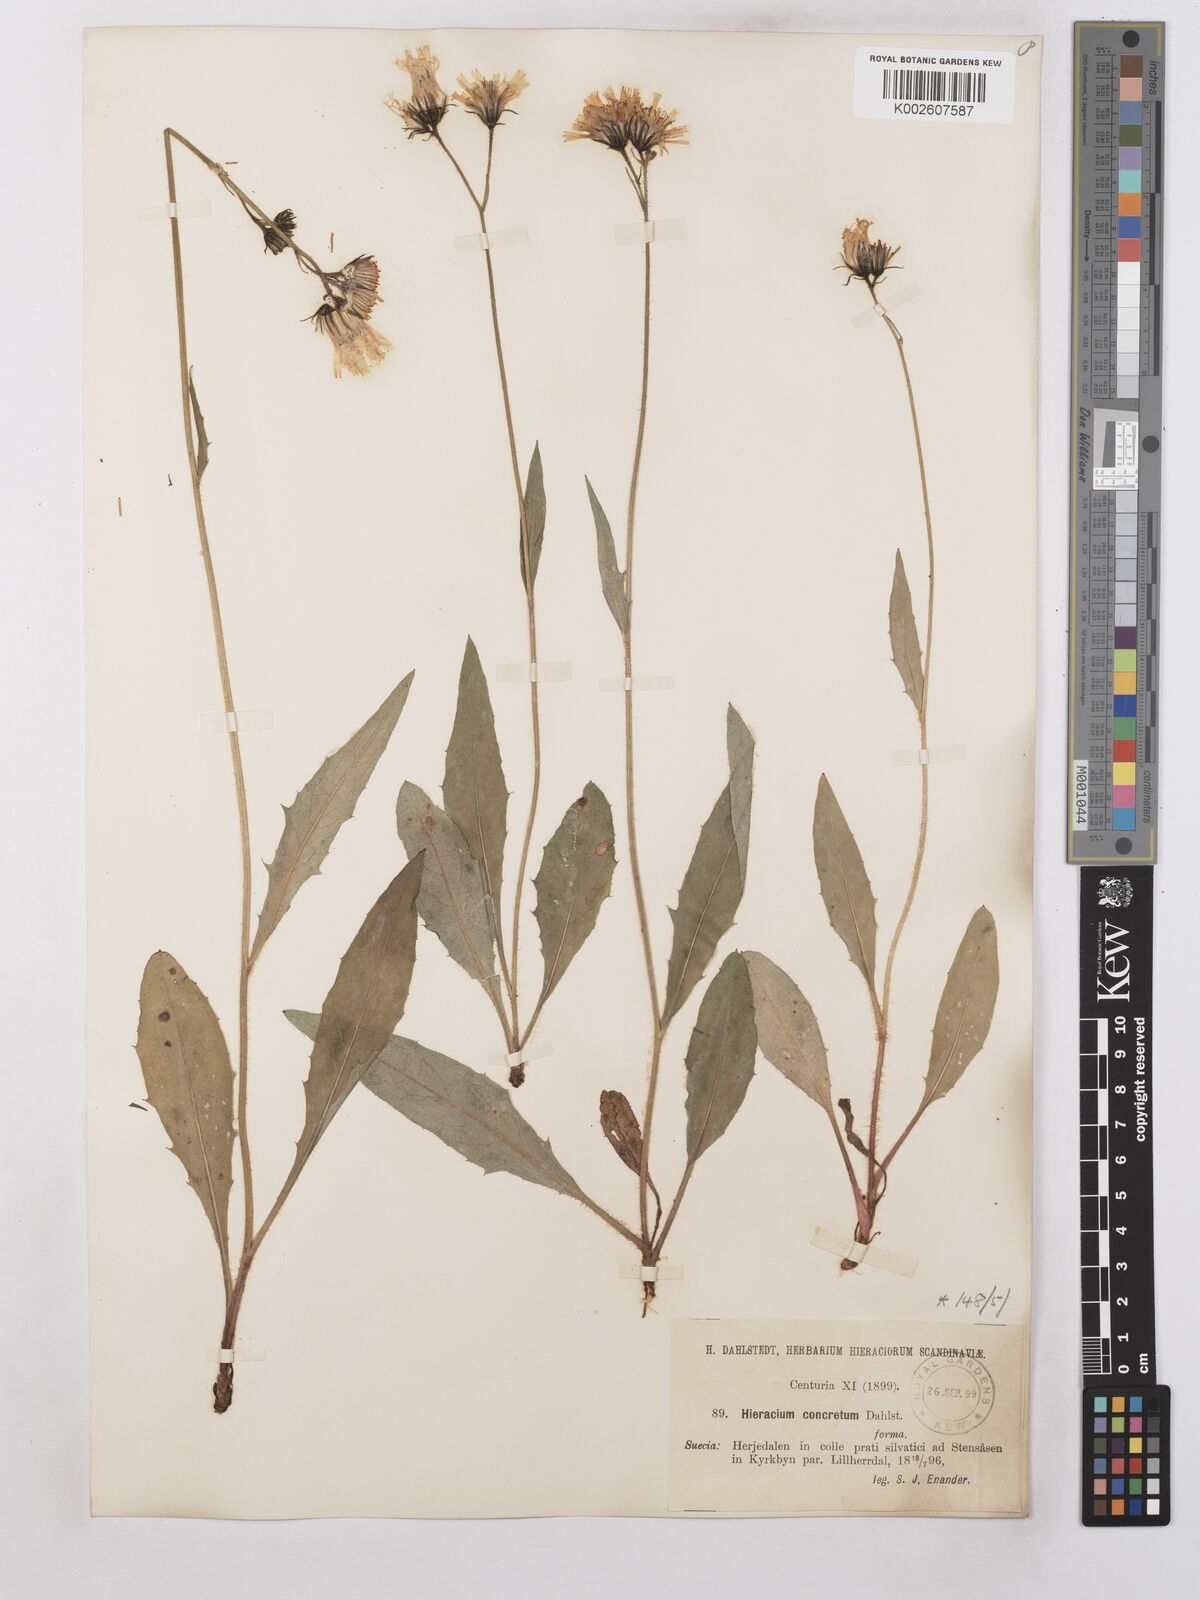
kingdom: Plantae
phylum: Tracheophyta
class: Magnoliopsida
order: Asterales
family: Asteraceae
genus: Hieracium
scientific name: Hieracium concretum
